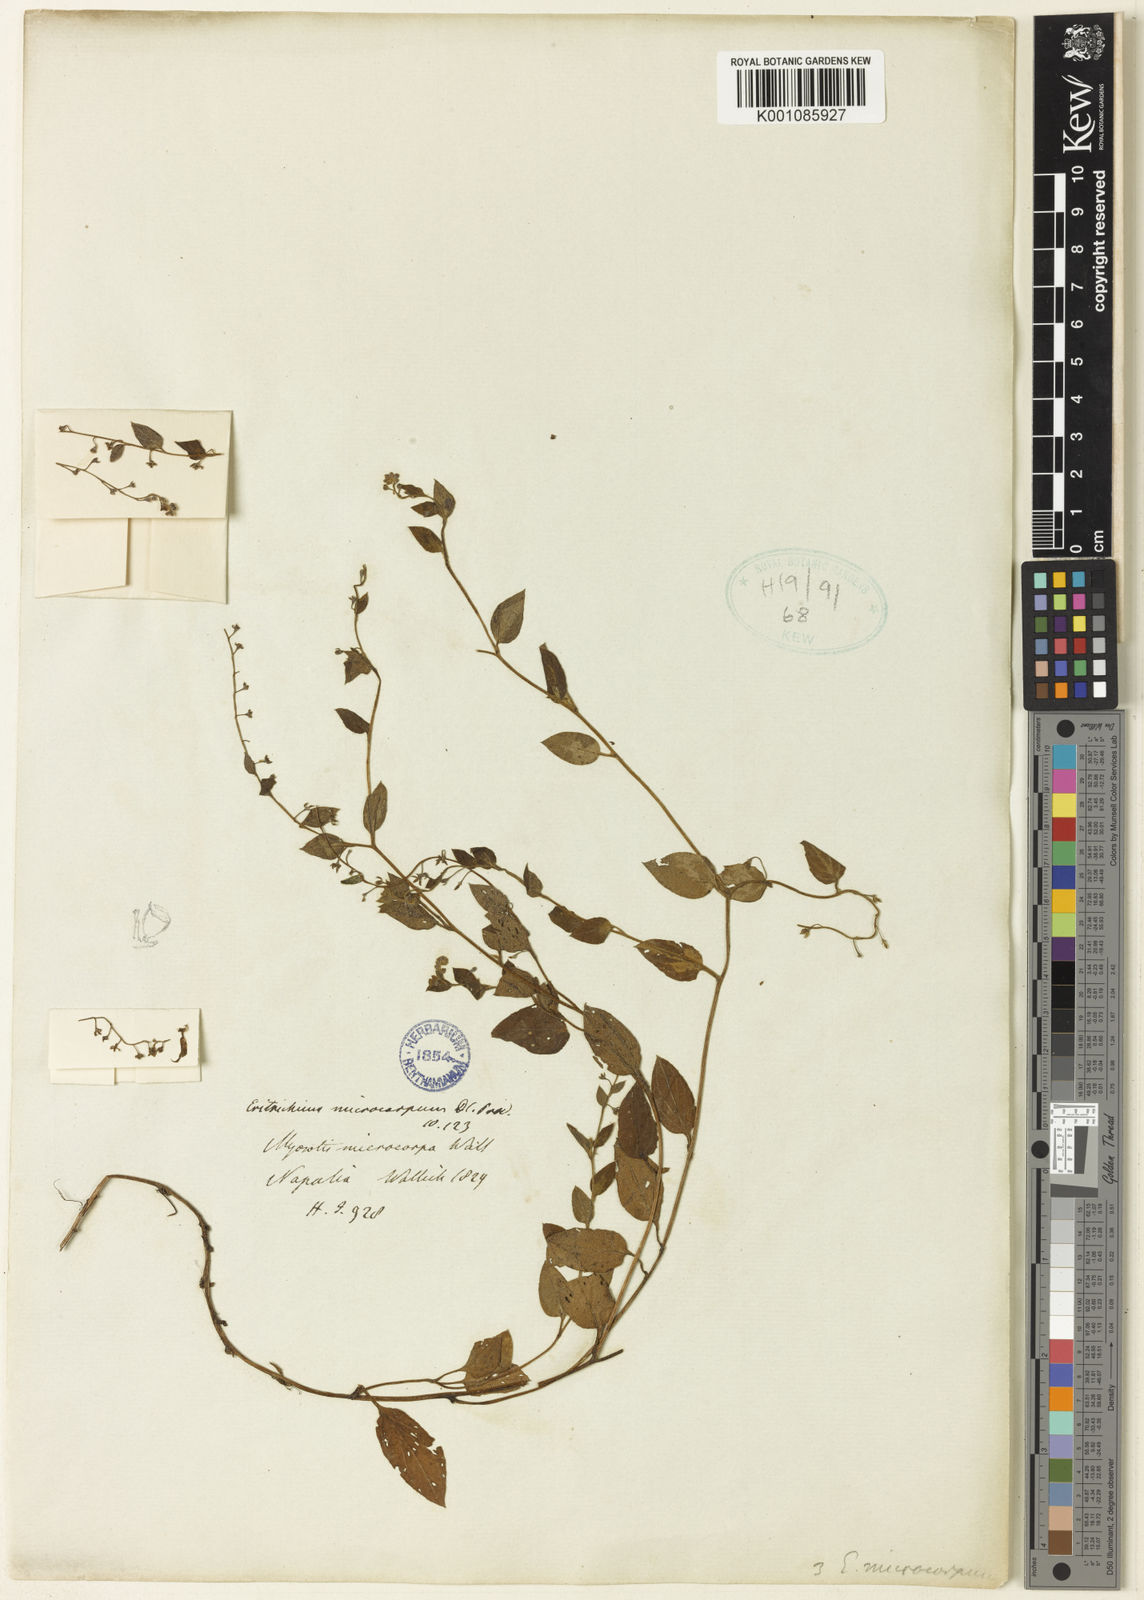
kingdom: Plantae
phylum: Tracheophyta
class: Magnoliopsida
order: Boraginales
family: Boraginaceae
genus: Trigonotis
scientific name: Trigonotis microcarpa
